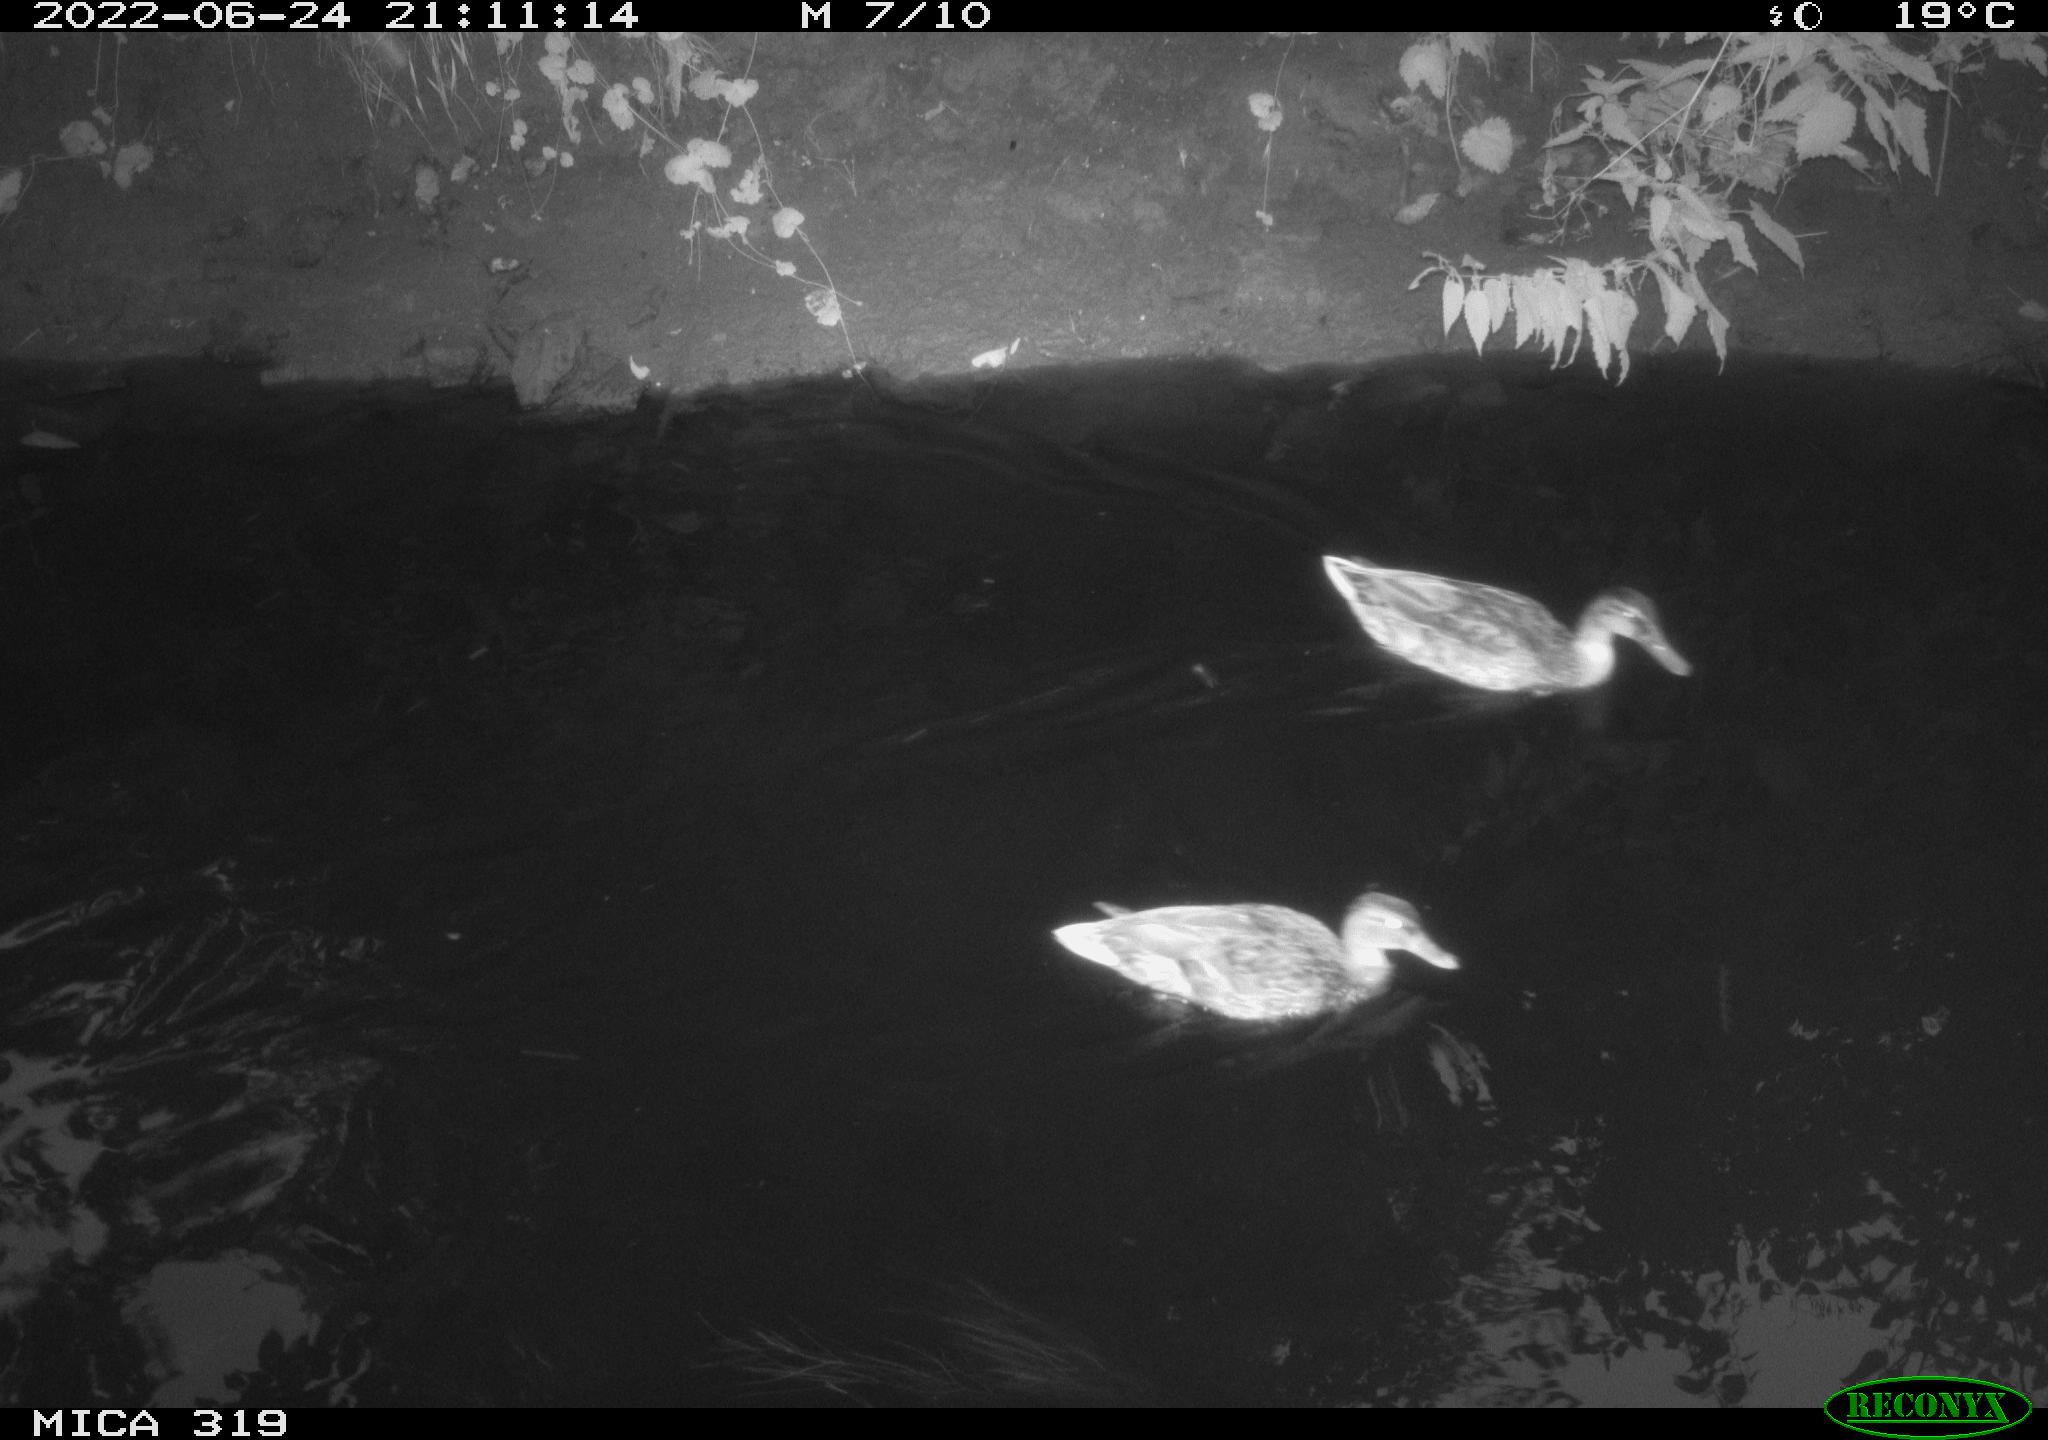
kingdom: Animalia
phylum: Chordata
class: Aves
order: Anseriformes
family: Anatidae
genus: Mareca
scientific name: Mareca strepera
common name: Gadwall
